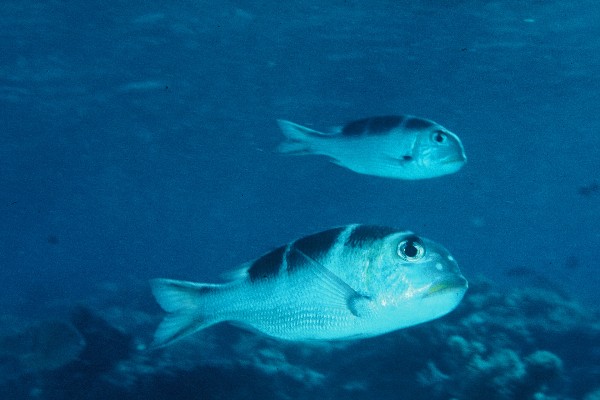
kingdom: Animalia
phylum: Chordata
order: Perciformes
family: Lethrinidae
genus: Monotaxis
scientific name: Monotaxis grandoculis
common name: Bigeye emperor
